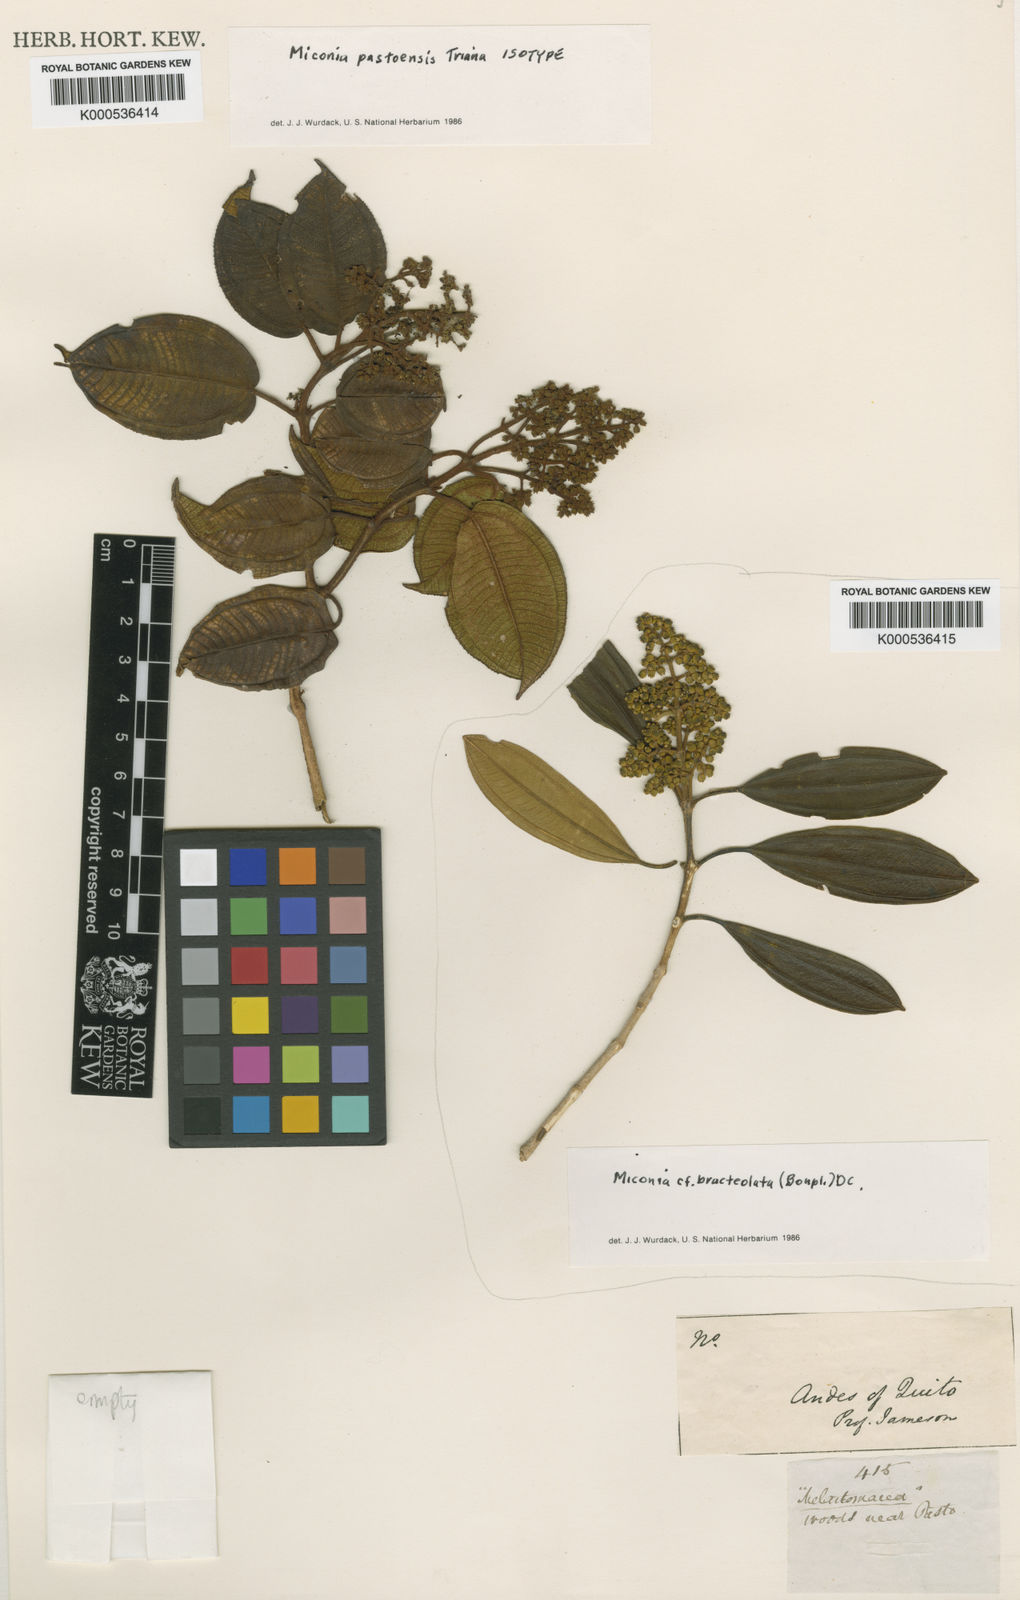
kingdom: Plantae
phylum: Tracheophyta
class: Magnoliopsida
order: Myrtales
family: Melastomataceae
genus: Miconia
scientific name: Miconia pastoensis
